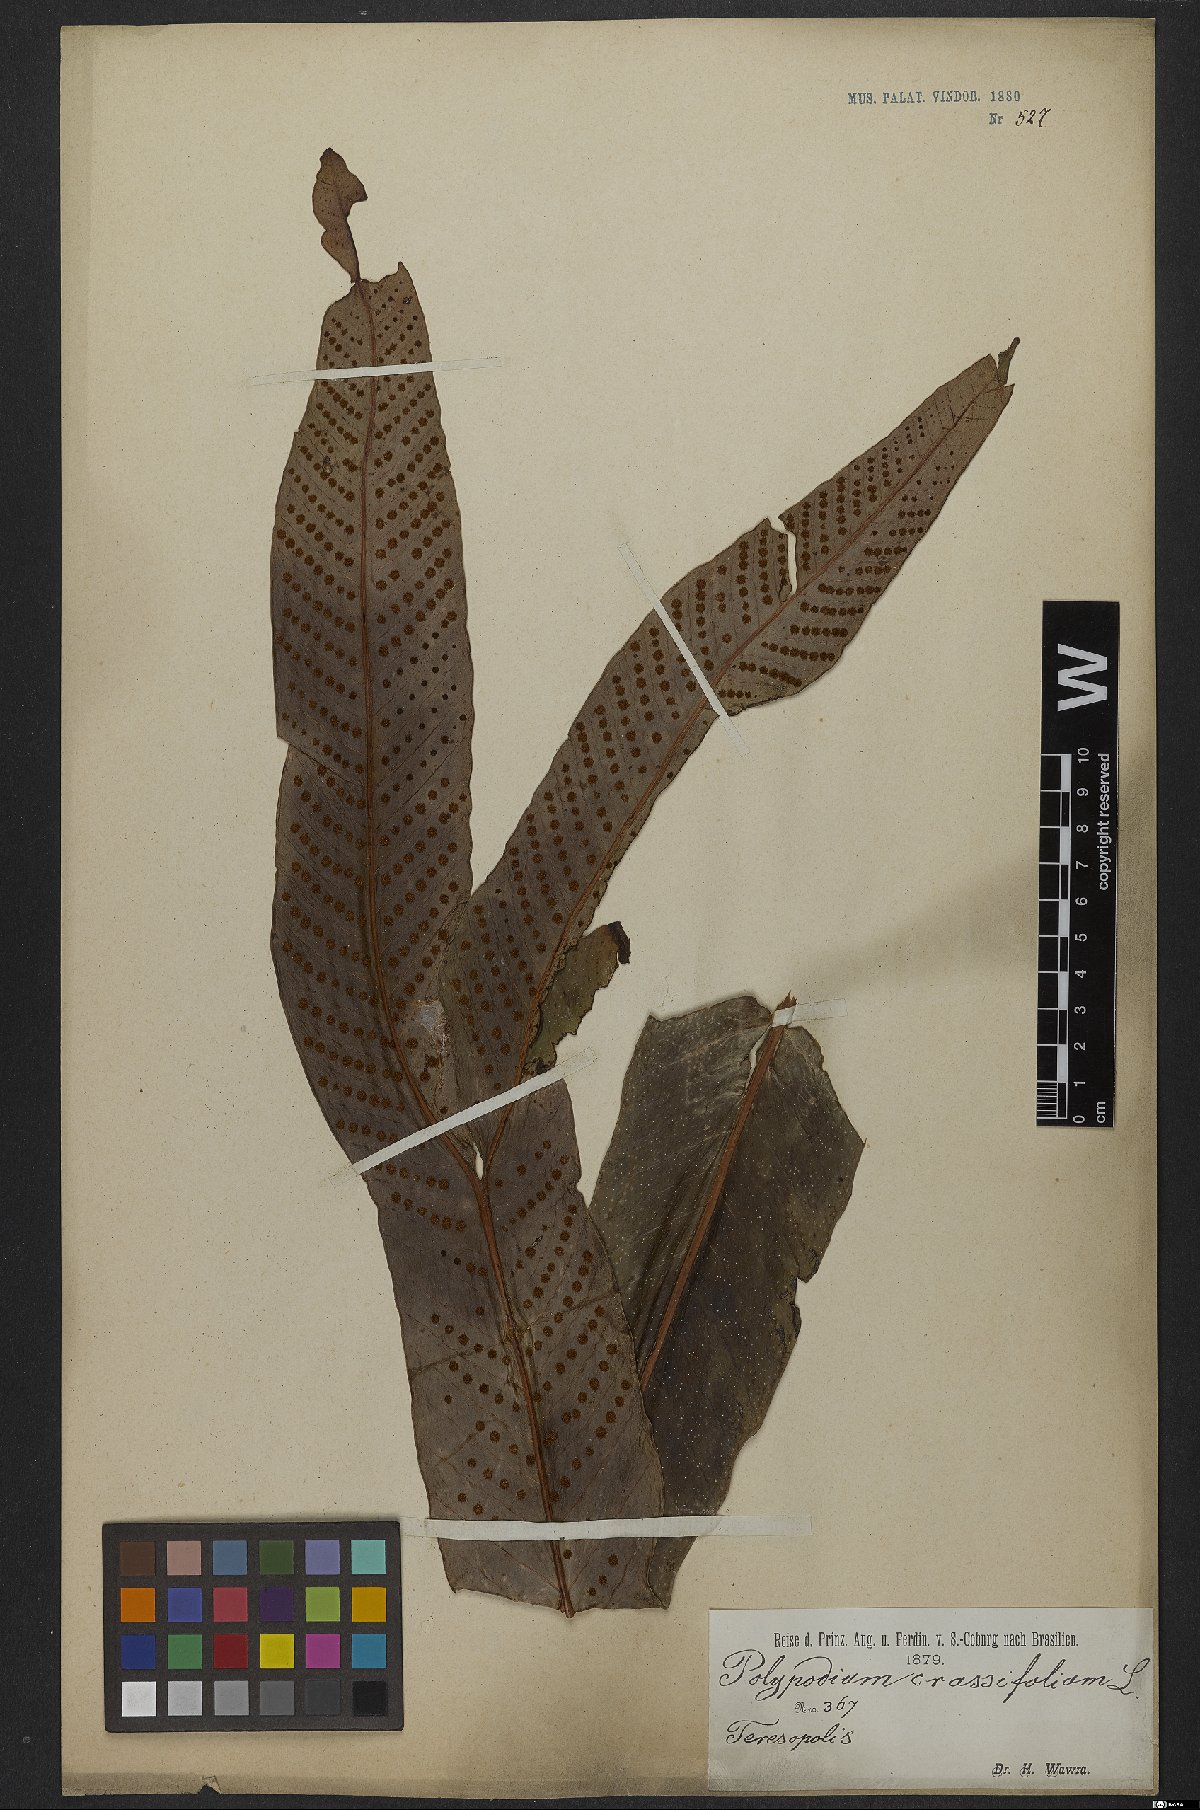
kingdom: Plantae
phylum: Tracheophyta
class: Polypodiopsida
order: Polypodiales
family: Polypodiaceae
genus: Niphidium
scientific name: Niphidium crassifolium
